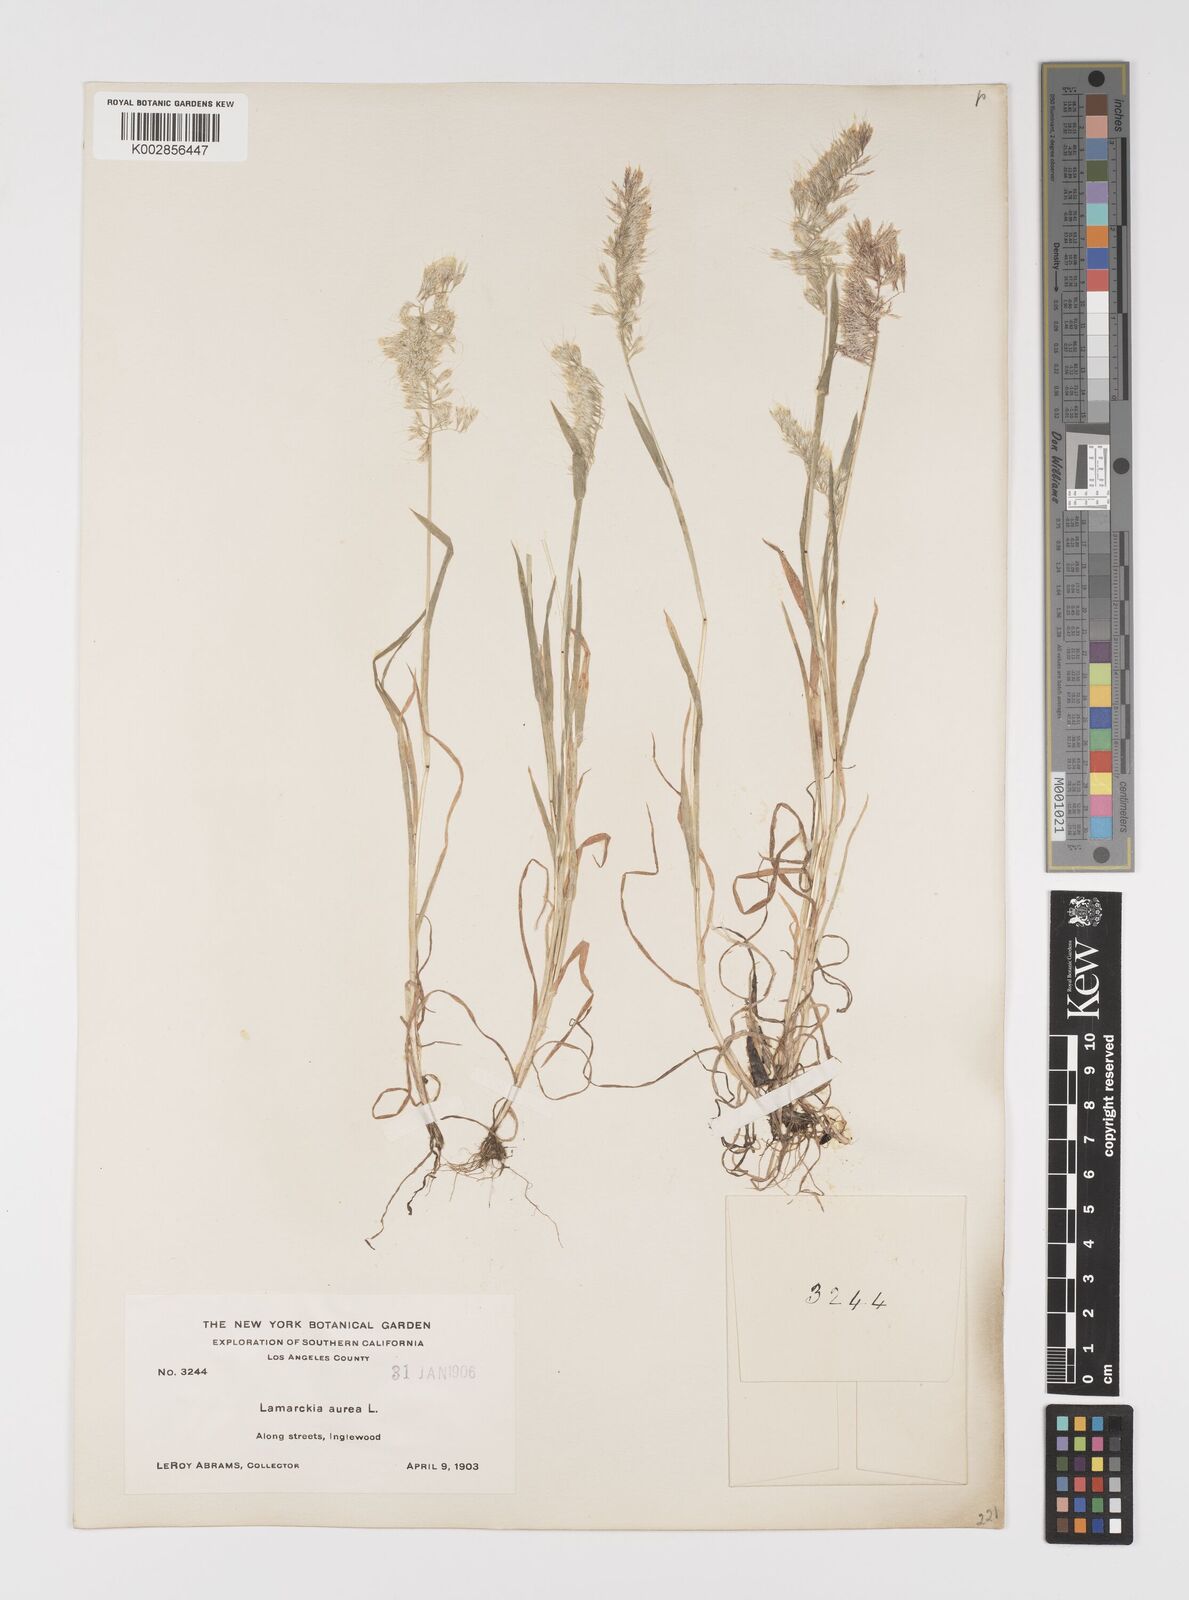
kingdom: Plantae
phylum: Tracheophyta
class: Liliopsida
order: Poales
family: Poaceae
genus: Lamarckia
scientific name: Lamarckia aurea
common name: Golden dog's-tail
